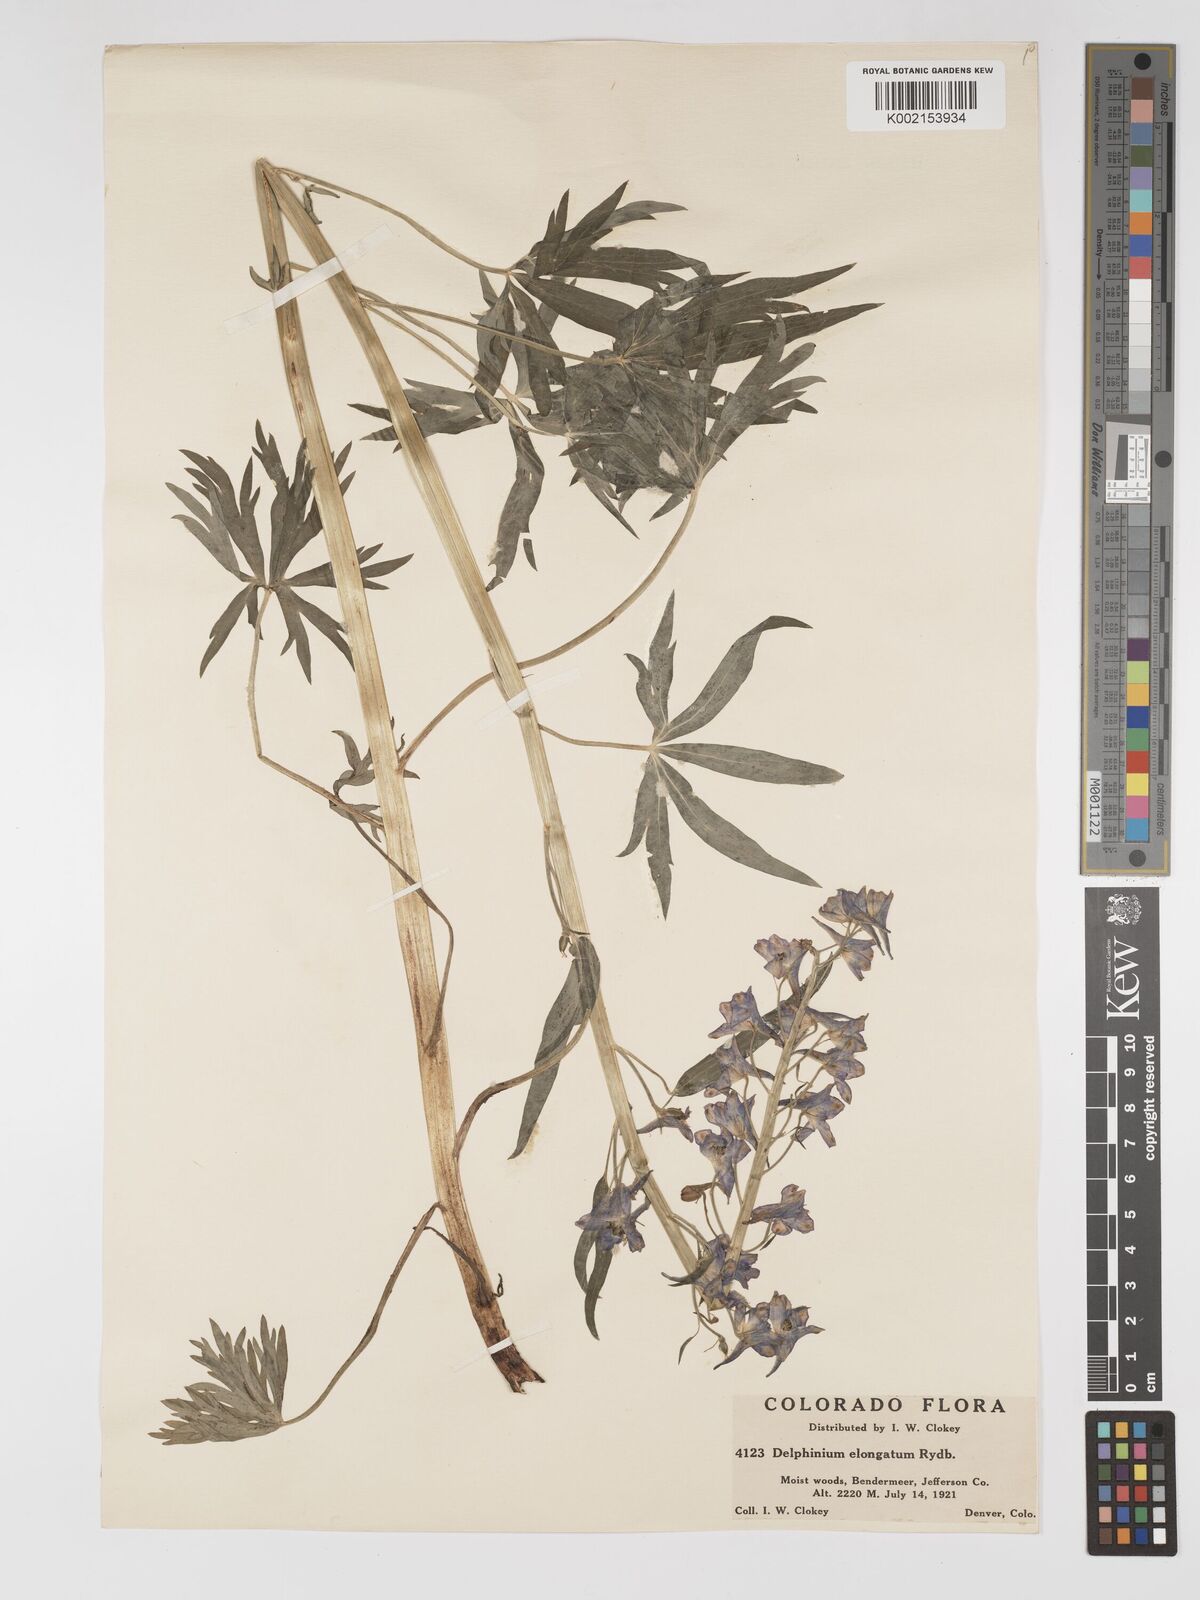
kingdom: Plantae
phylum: Tracheophyta
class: Magnoliopsida
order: Ranunculales
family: Ranunculaceae
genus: Delphinium
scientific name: Delphinium glaucum
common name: Brown's larkspur
